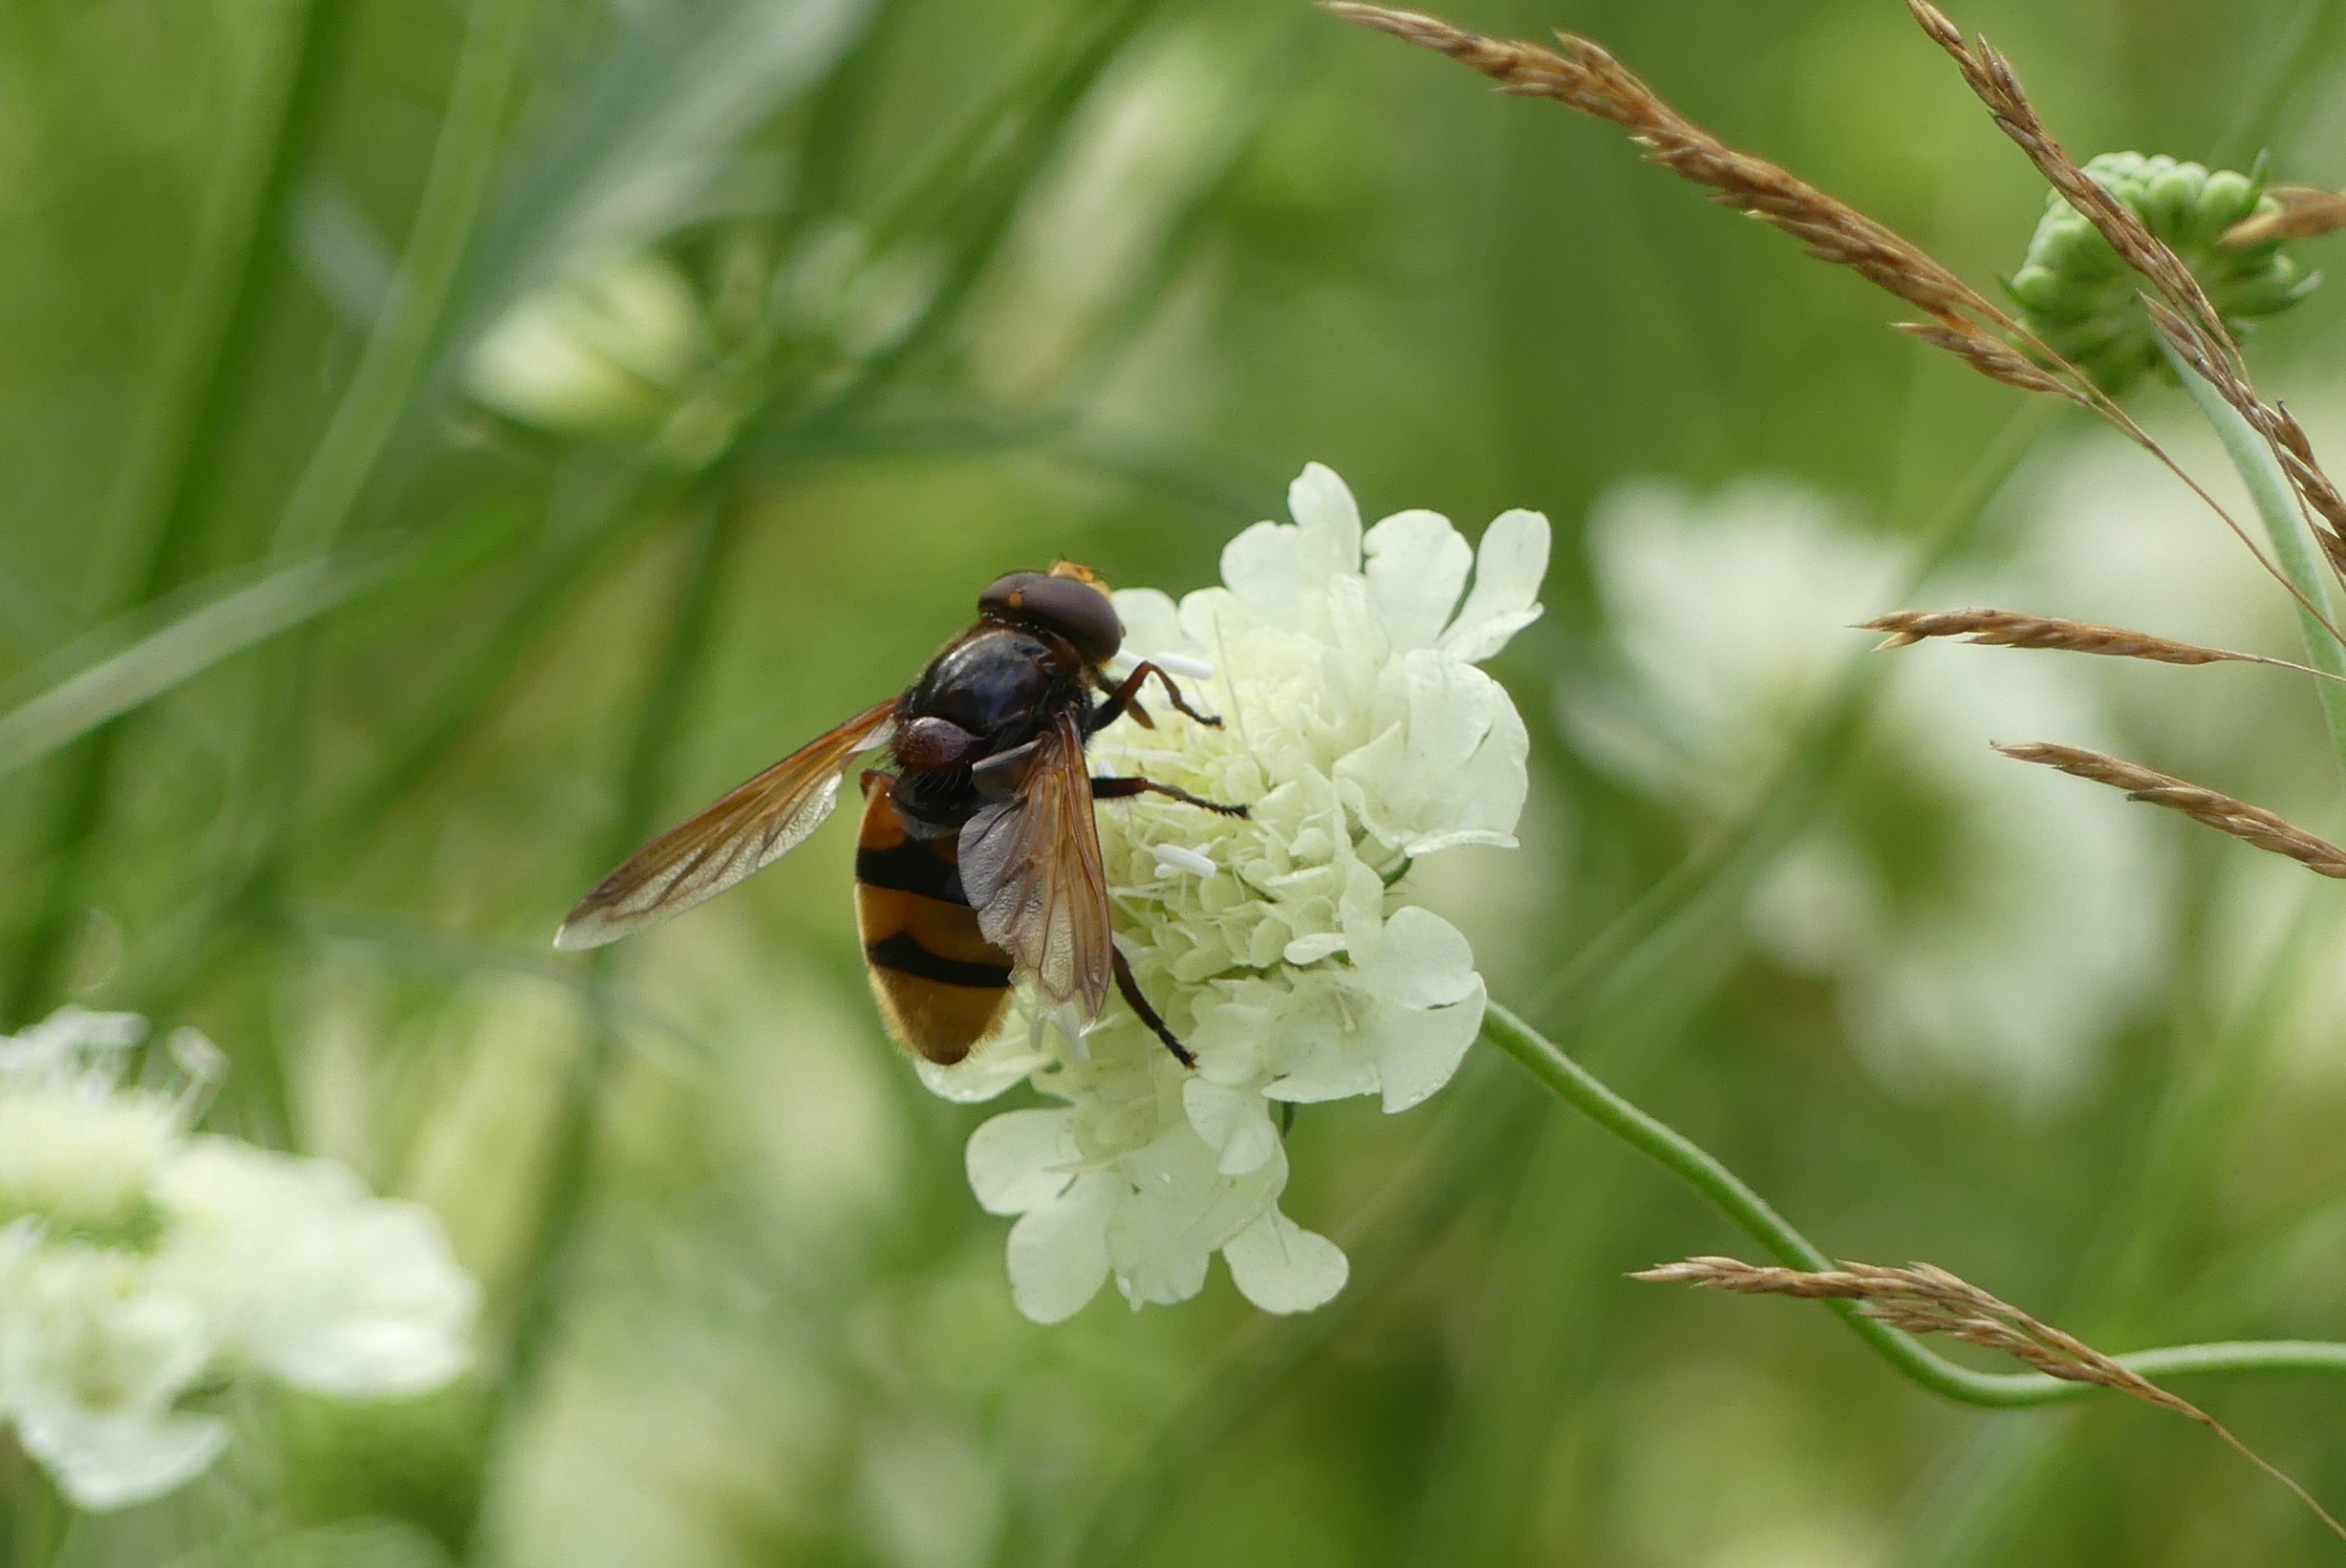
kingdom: Animalia
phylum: Arthropoda
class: Insecta
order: Diptera
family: Syrphidae
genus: Volucella
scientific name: Volucella zonaria
